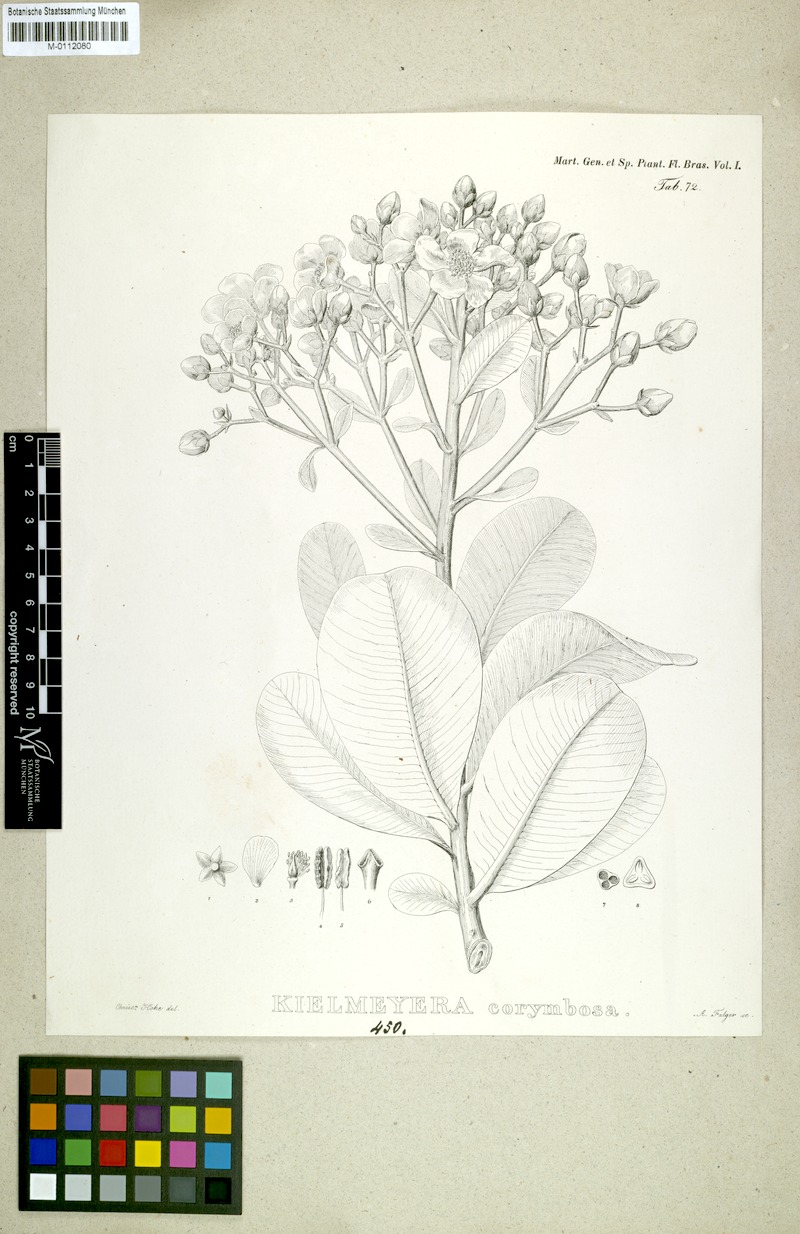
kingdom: Plantae
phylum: Tracheophyta
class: Magnoliopsida
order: Malpighiales
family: Calophyllaceae
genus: Kielmeyera
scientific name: Kielmeyera corymbosa
